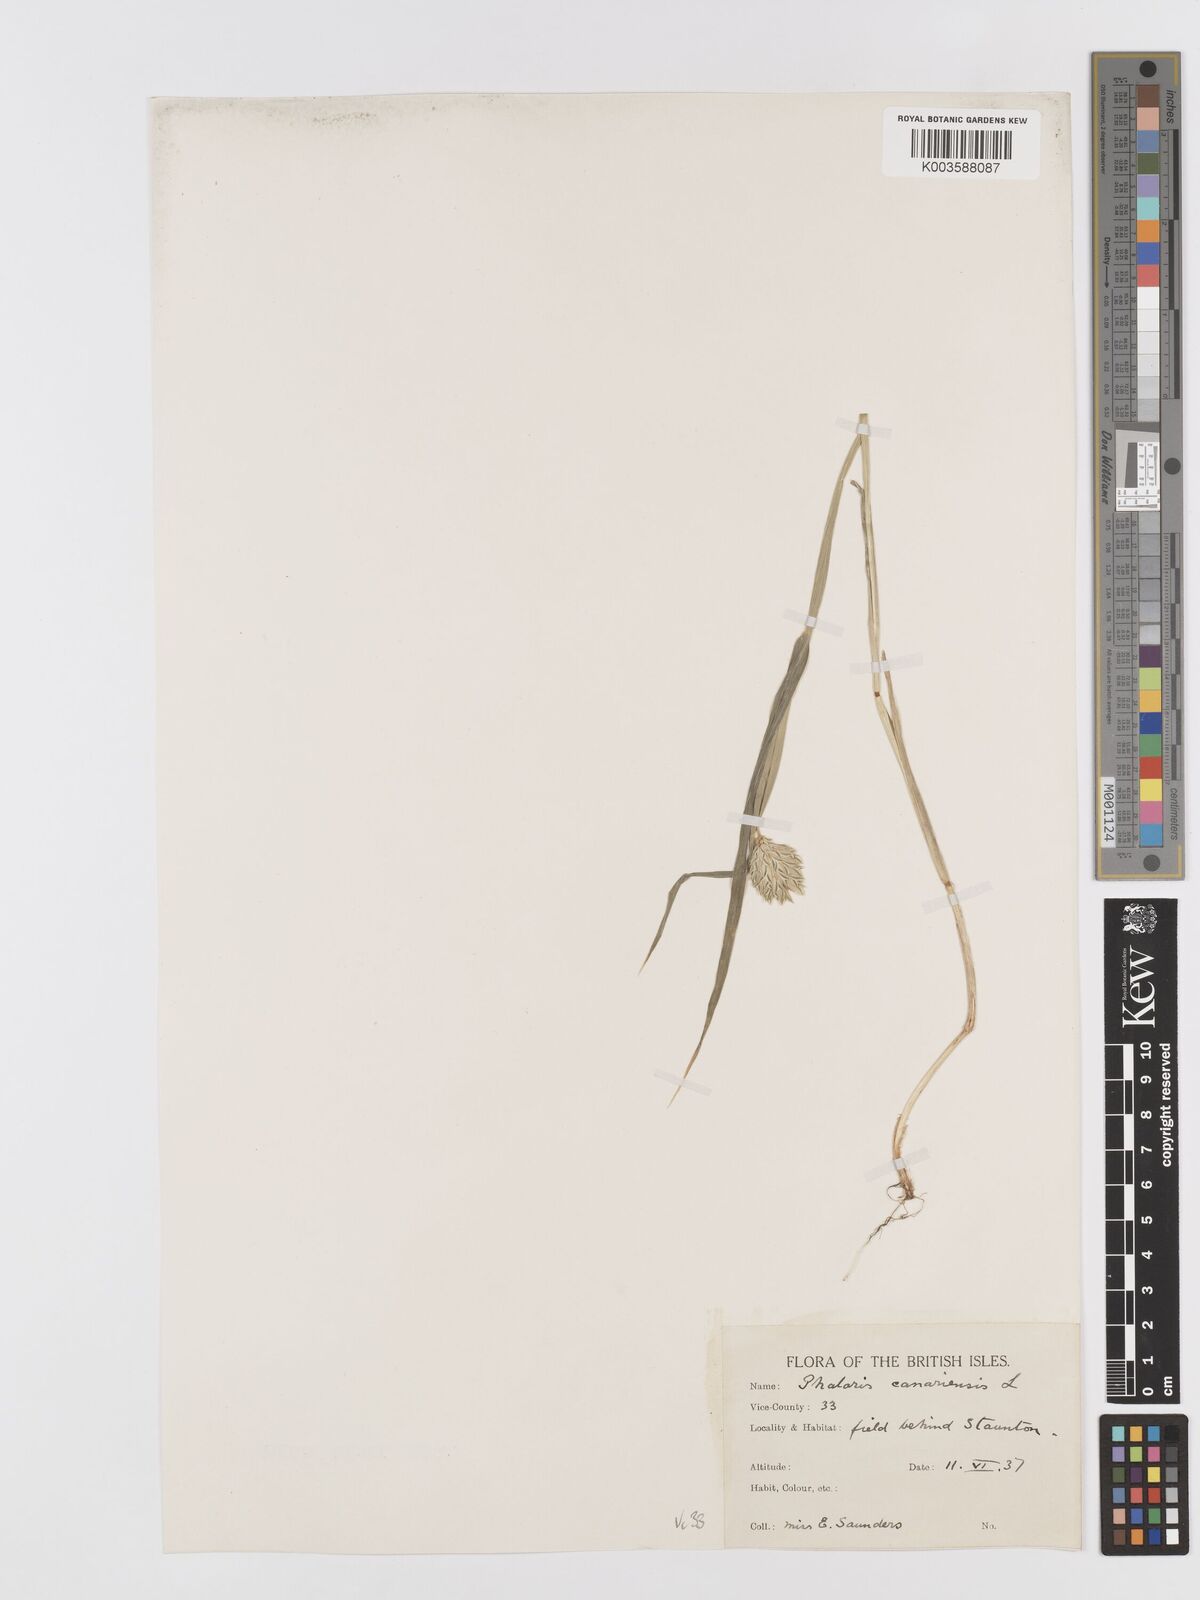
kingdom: Plantae
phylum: Tracheophyta
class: Liliopsida
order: Poales
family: Poaceae
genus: Phalaris
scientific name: Phalaris canariensis
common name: Annual canarygrass
